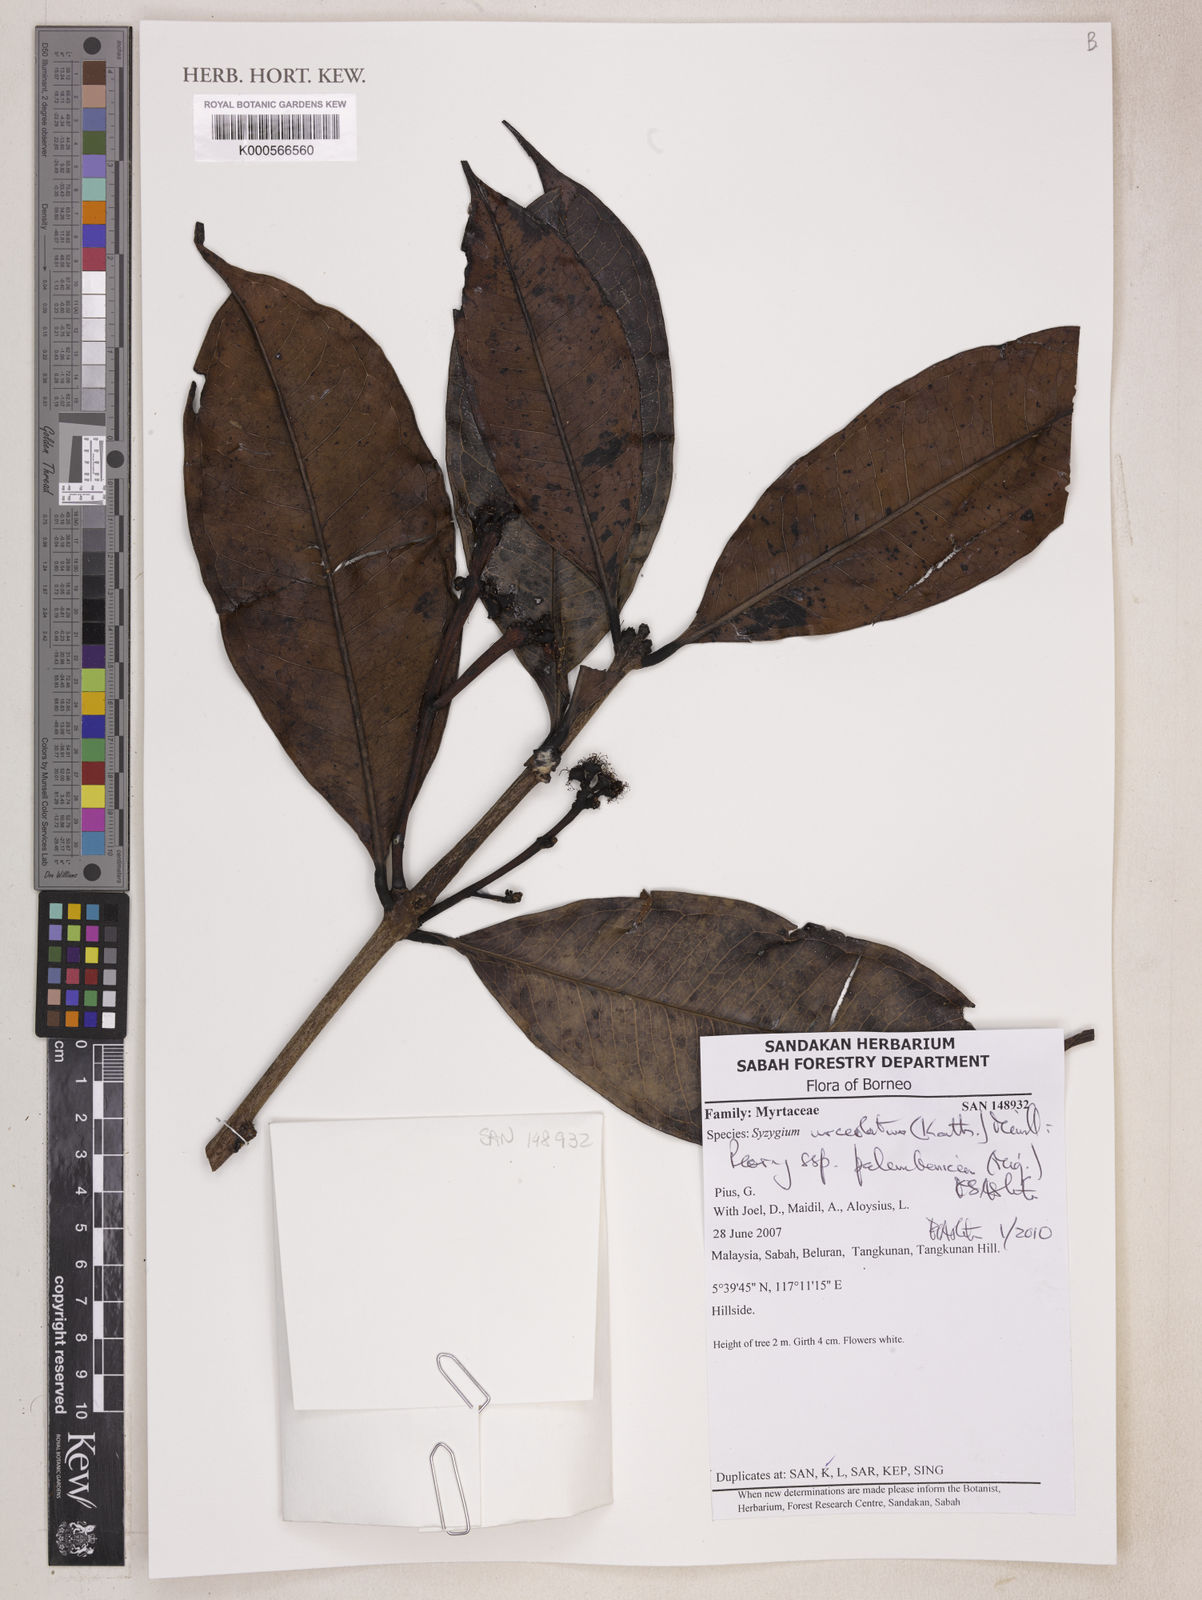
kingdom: Plantae
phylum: Tracheophyta
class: Magnoliopsida
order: Myrtales
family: Myrtaceae
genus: Syzygium
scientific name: Syzygium urceolatum
